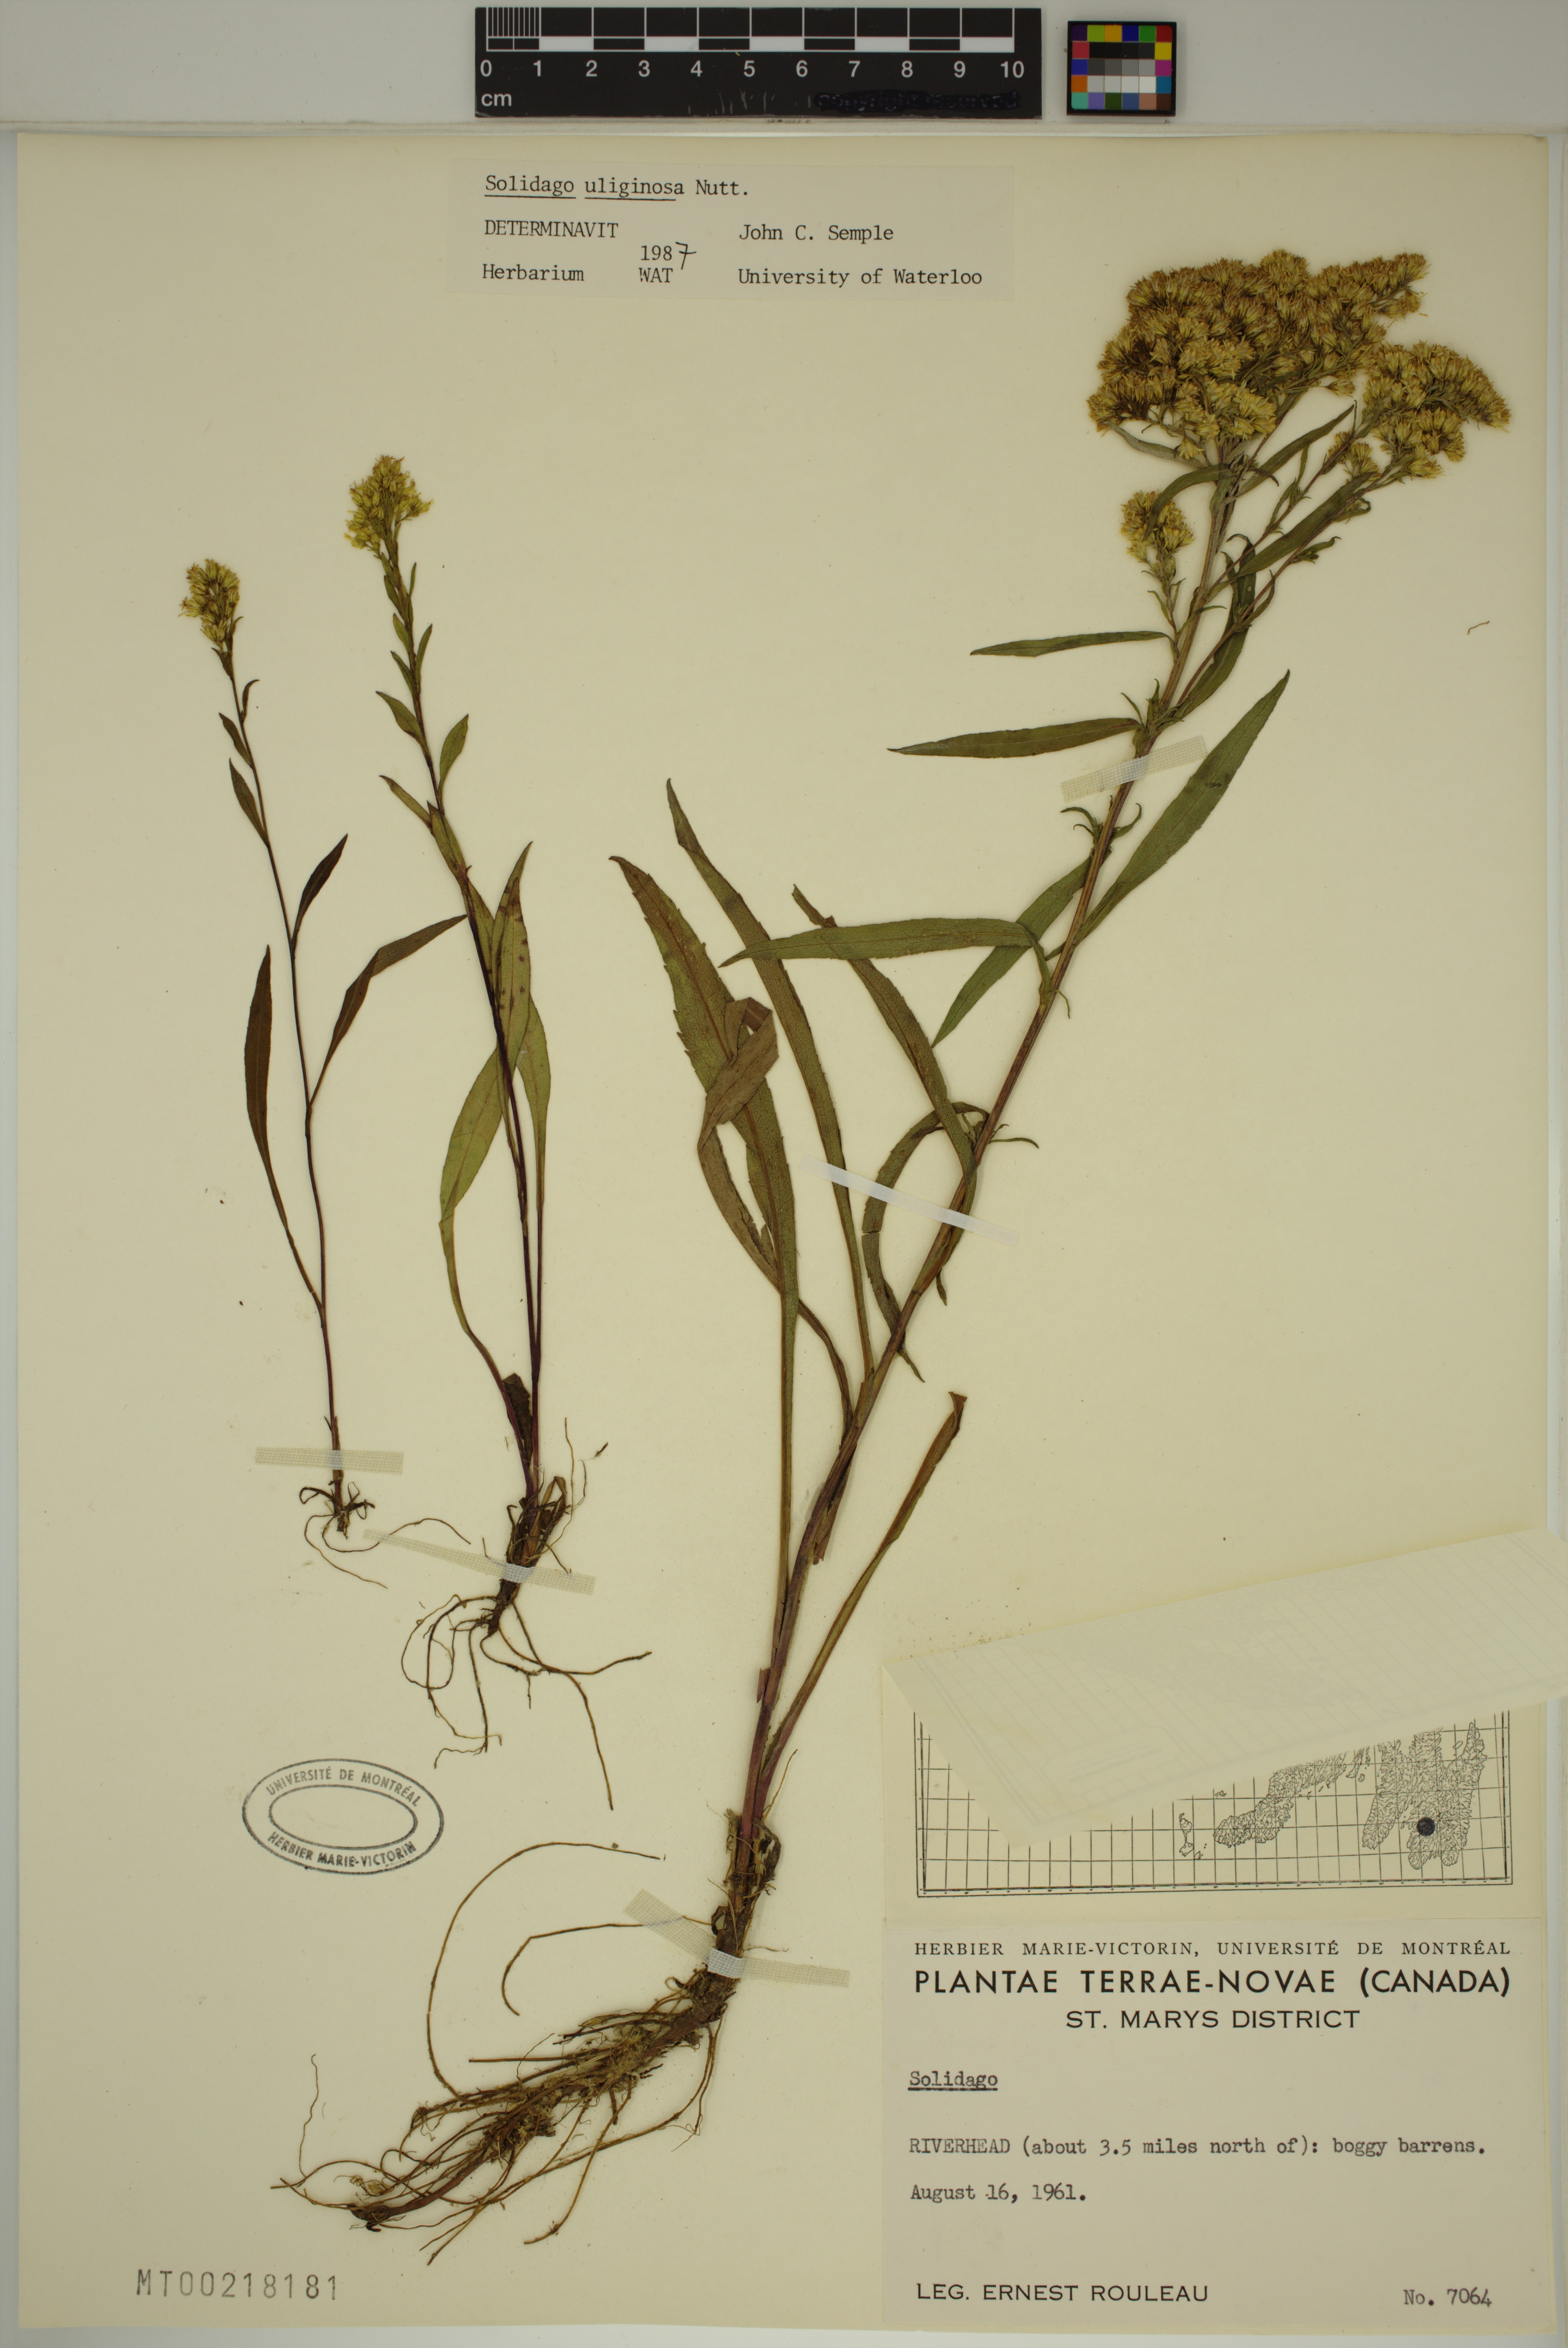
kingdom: Plantae
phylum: Tracheophyta
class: Magnoliopsida
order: Asterales
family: Asteraceae
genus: Solidago
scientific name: Solidago uliginosa
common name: Bog goldenrod
